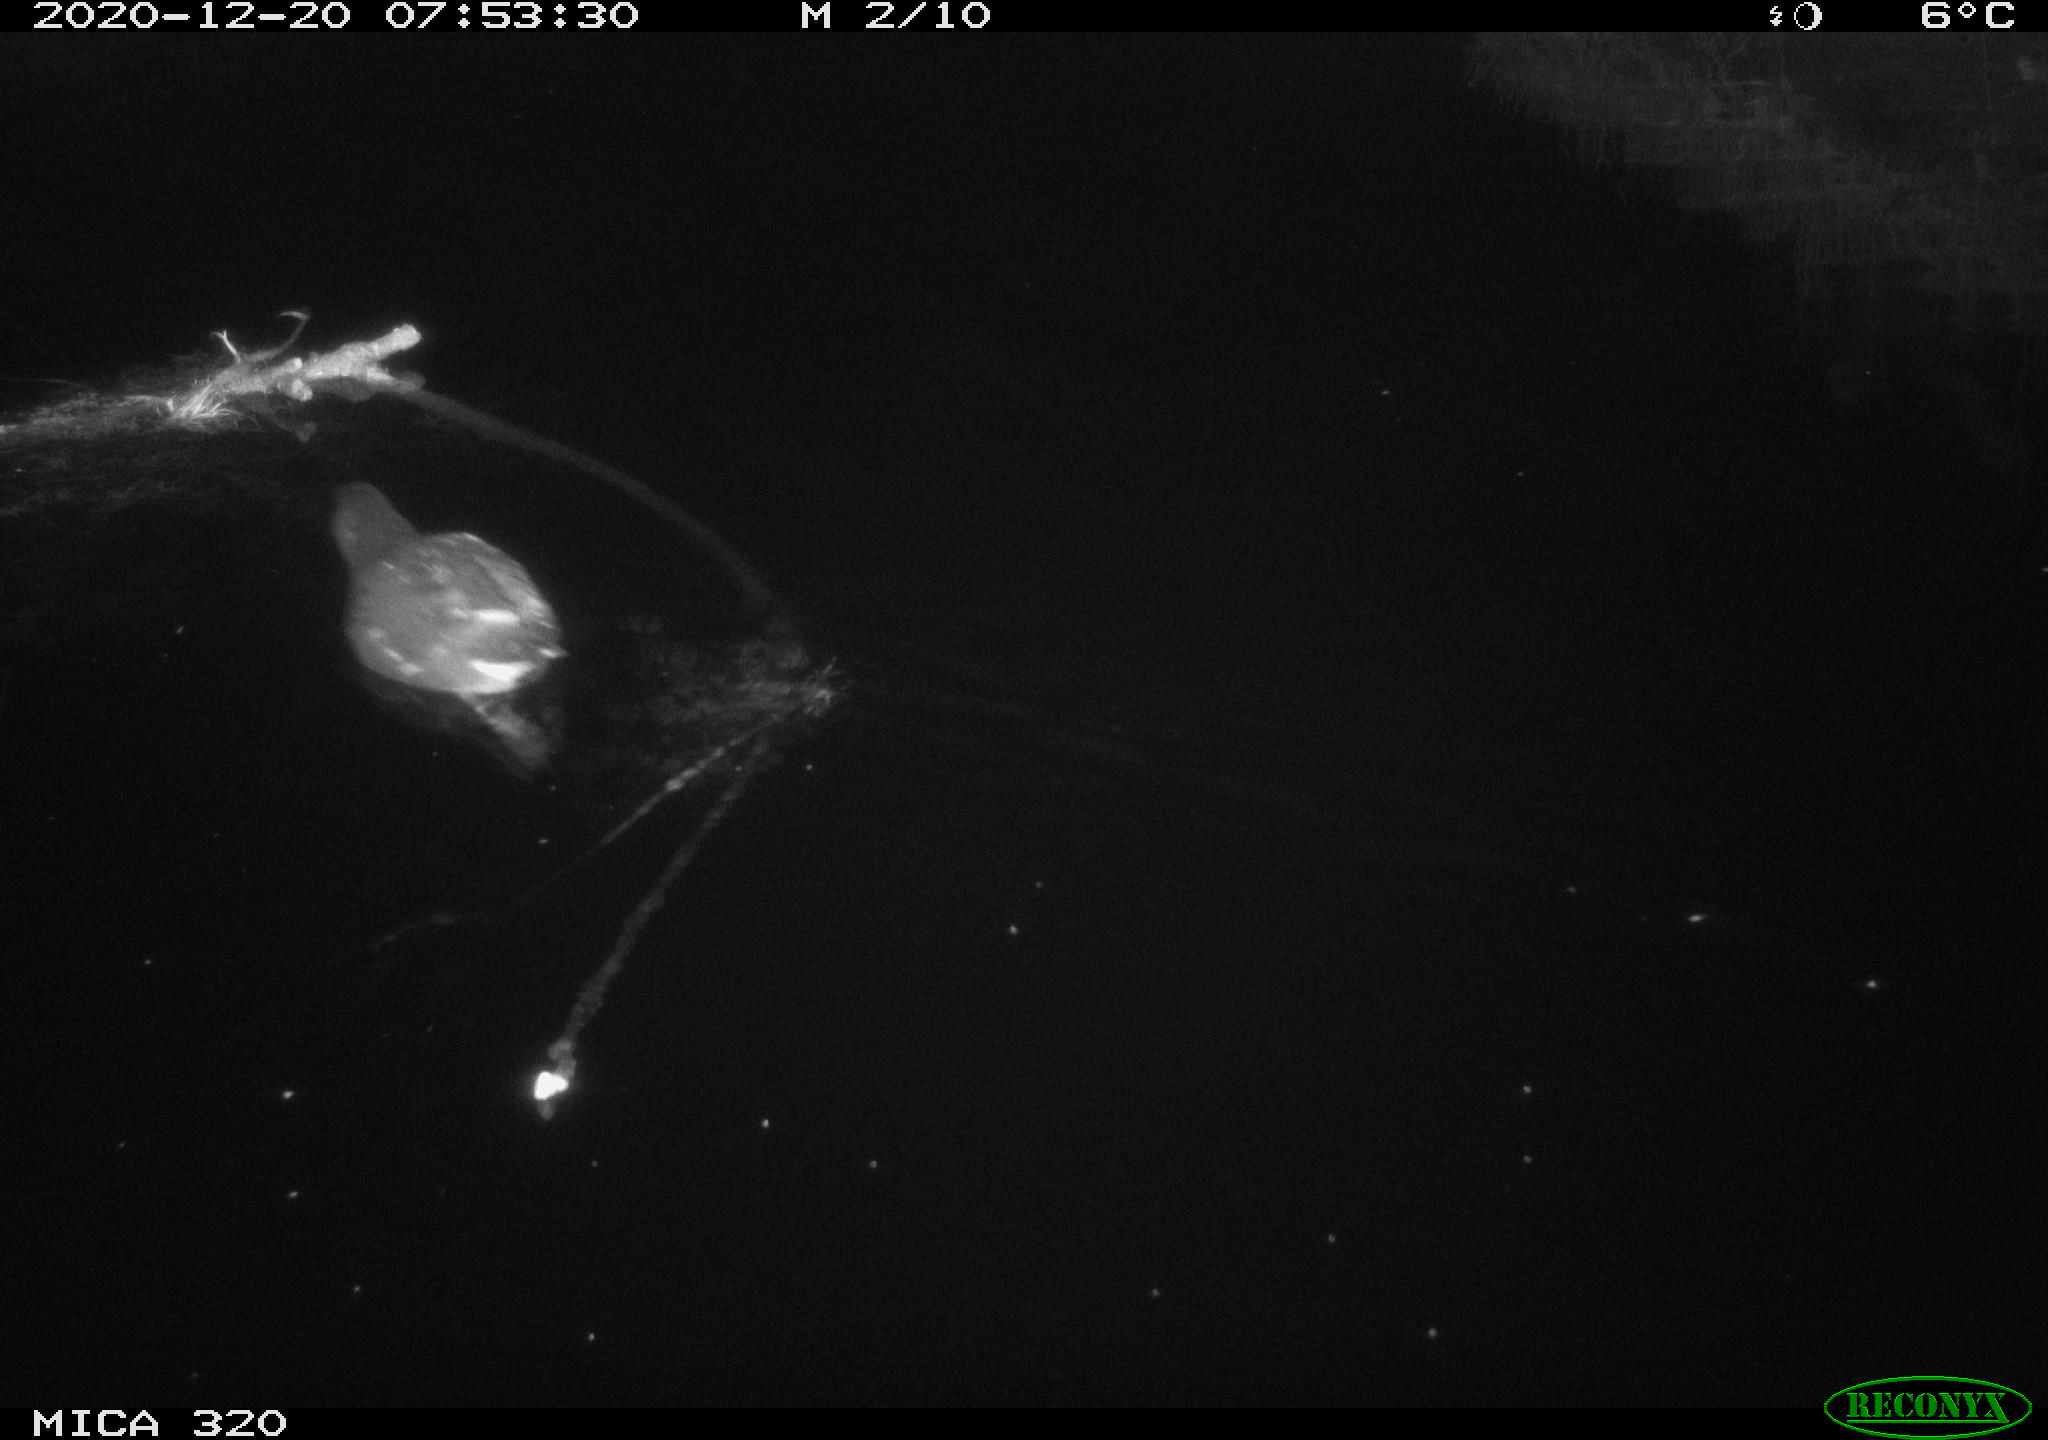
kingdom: Animalia
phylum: Chordata
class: Aves
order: Gruiformes
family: Rallidae
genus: Gallinula
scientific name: Gallinula chloropus
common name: Common moorhen
